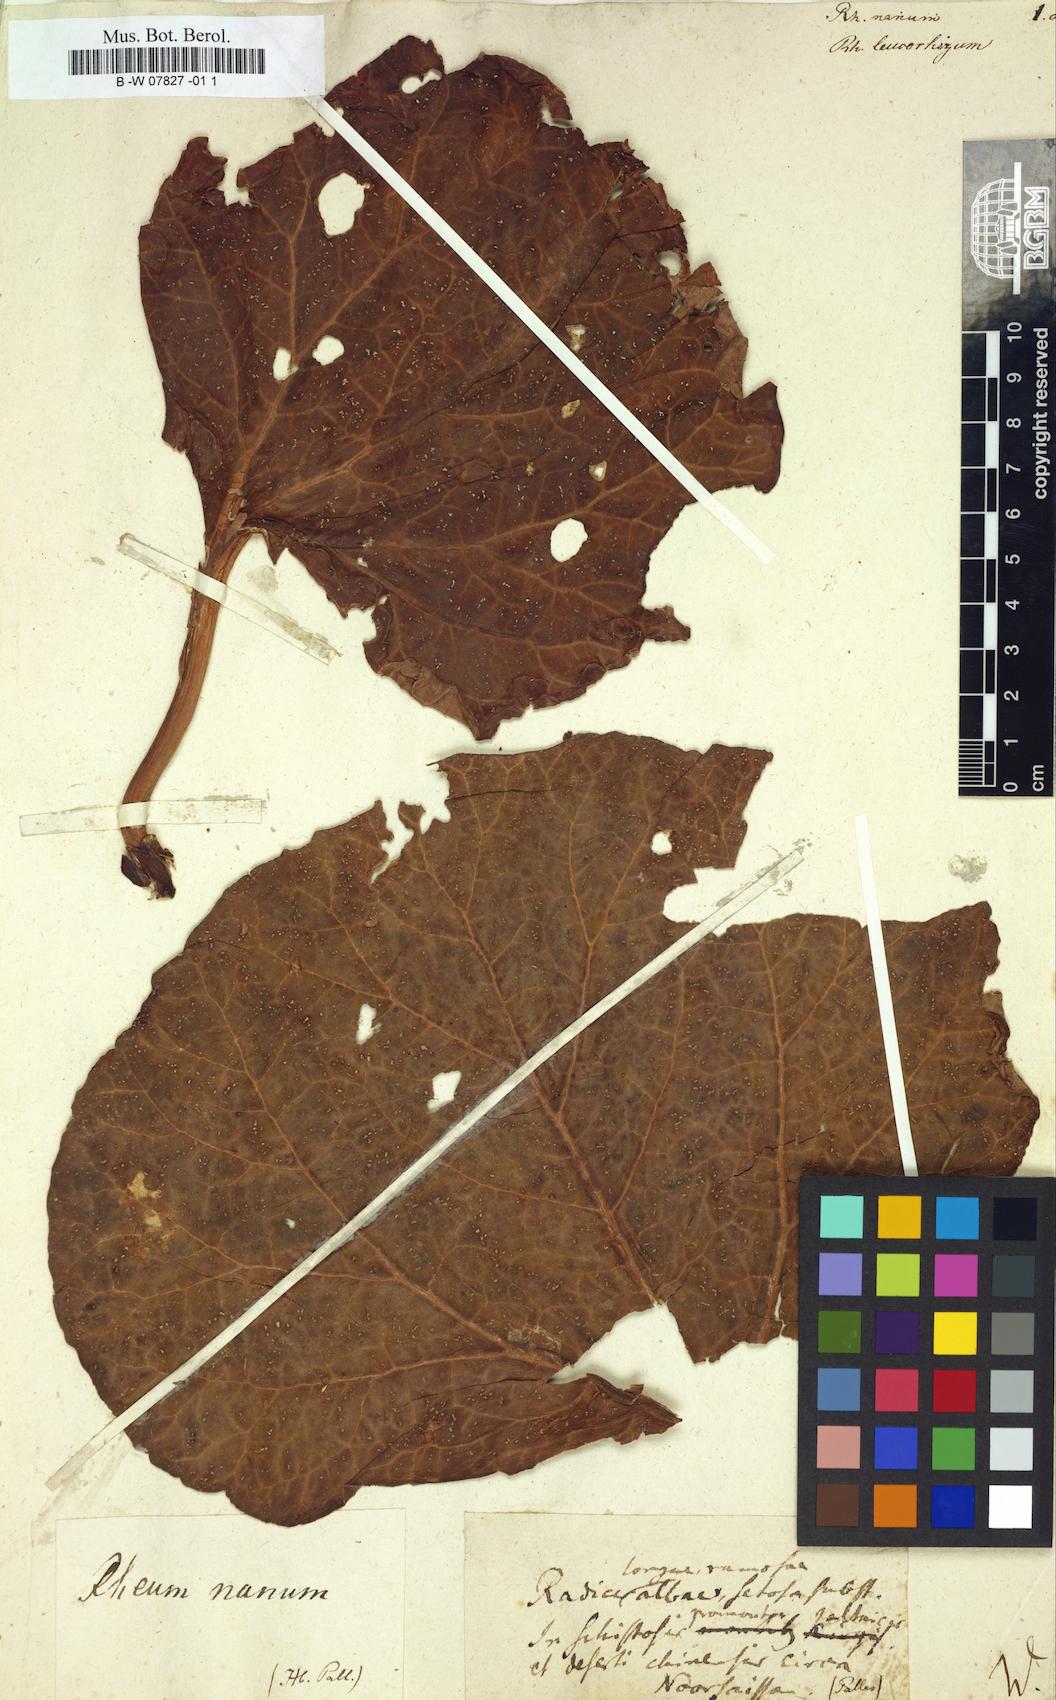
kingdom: Plantae
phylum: Tracheophyta
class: Magnoliopsida
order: Caryophyllales
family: Polygonaceae
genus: Rheum
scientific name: Rheum nanum
